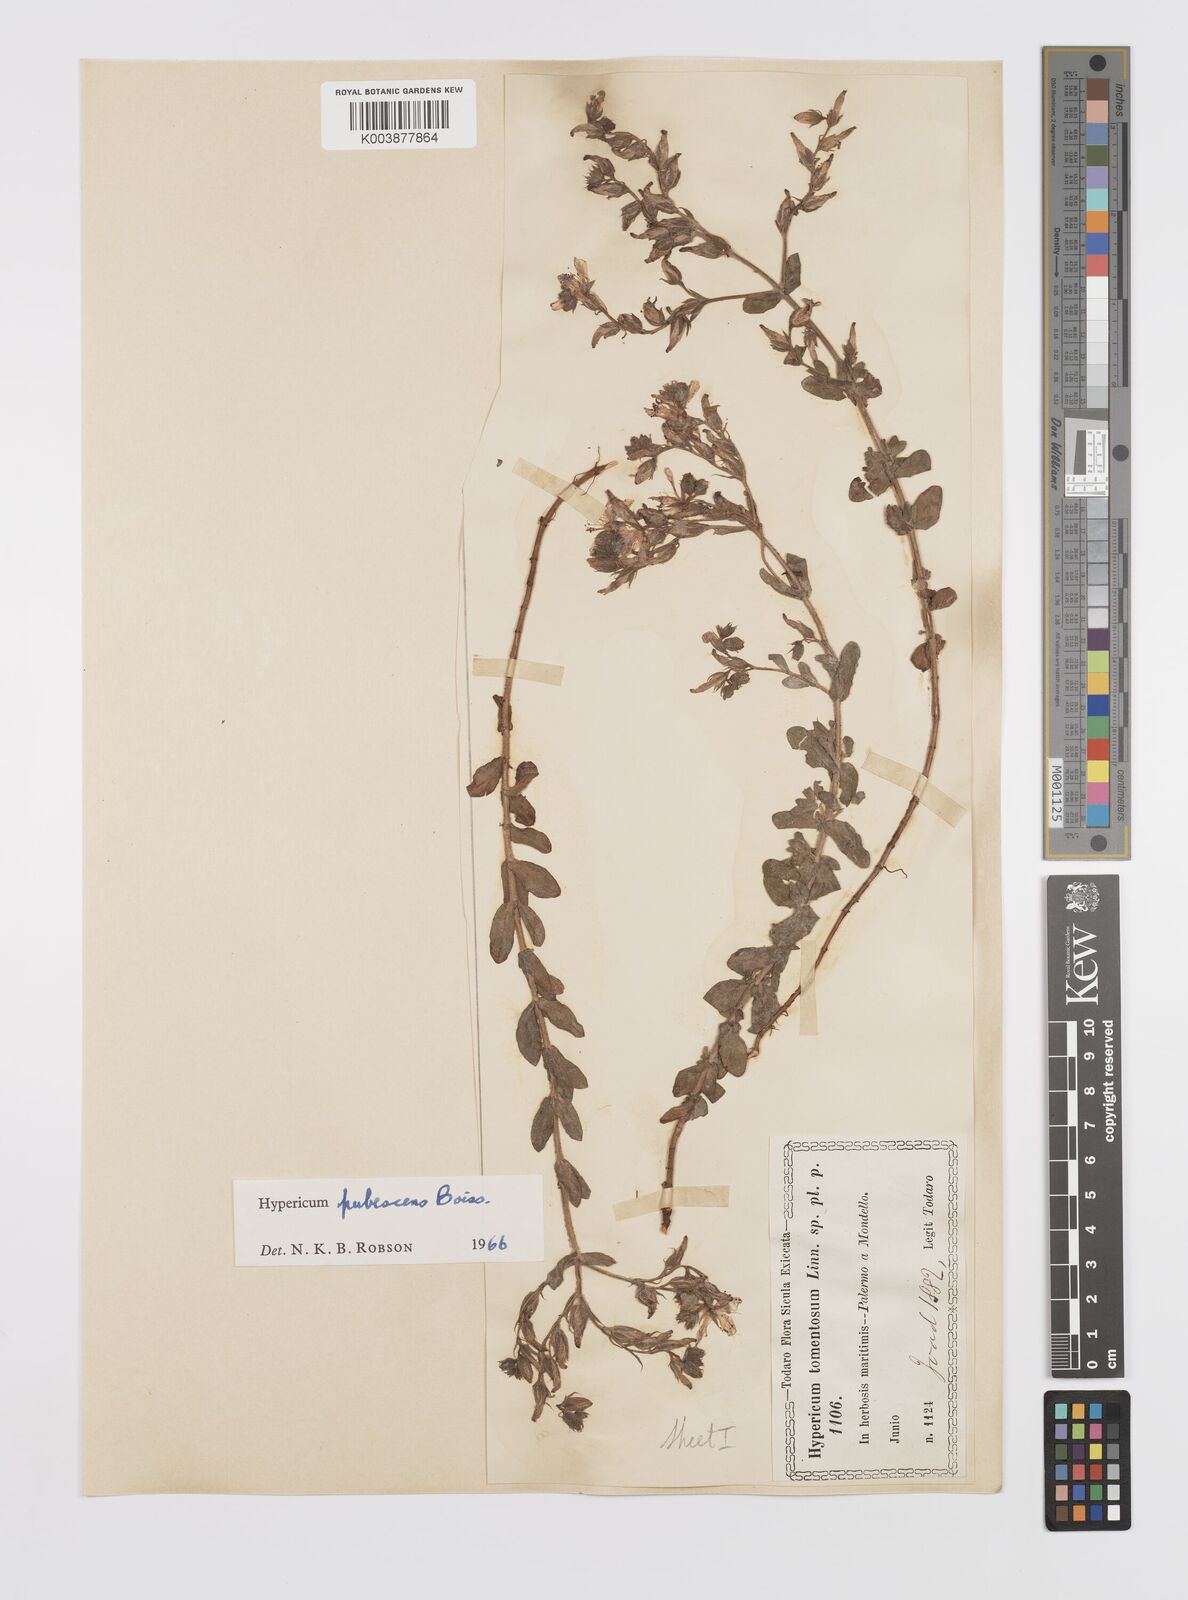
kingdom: Plantae
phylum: Tracheophyta
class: Magnoliopsida
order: Malpighiales
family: Hypericaceae
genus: Hypericum
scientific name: Hypericum pubescens
